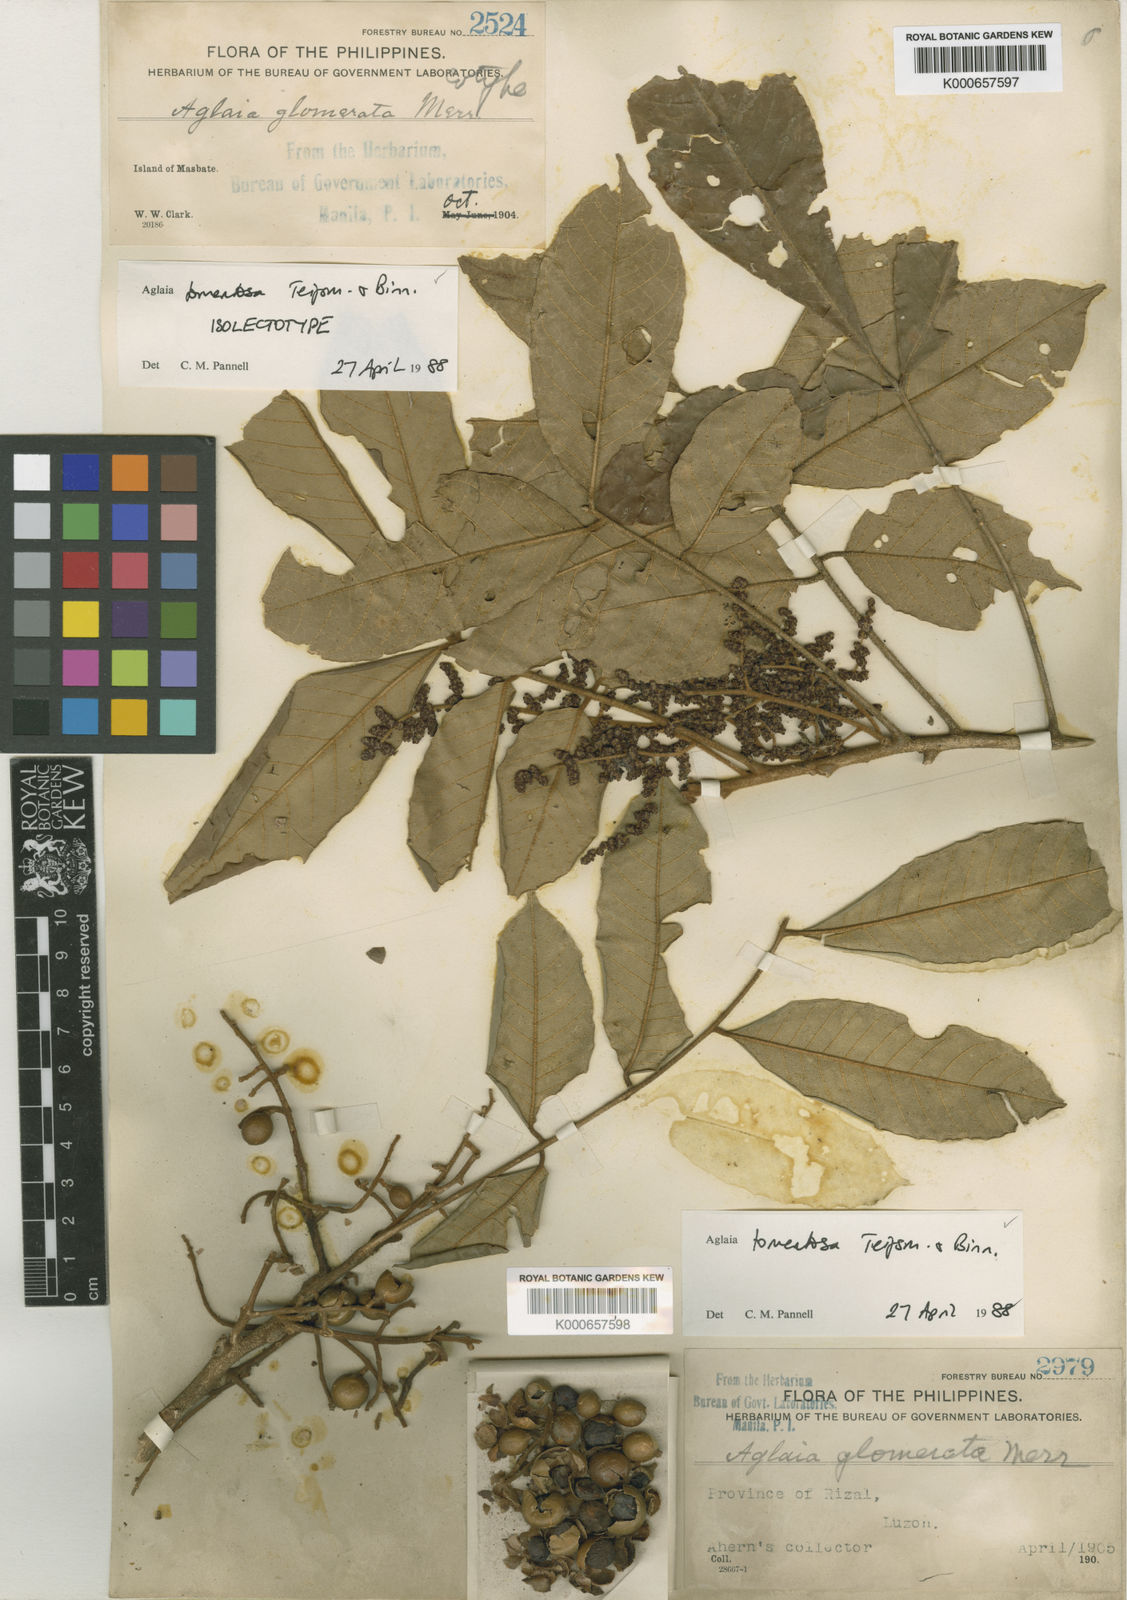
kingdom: Plantae
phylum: Tracheophyta
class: Magnoliopsida
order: Sapindales
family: Meliaceae
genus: Aglaia
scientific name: Aglaia tomentosa
